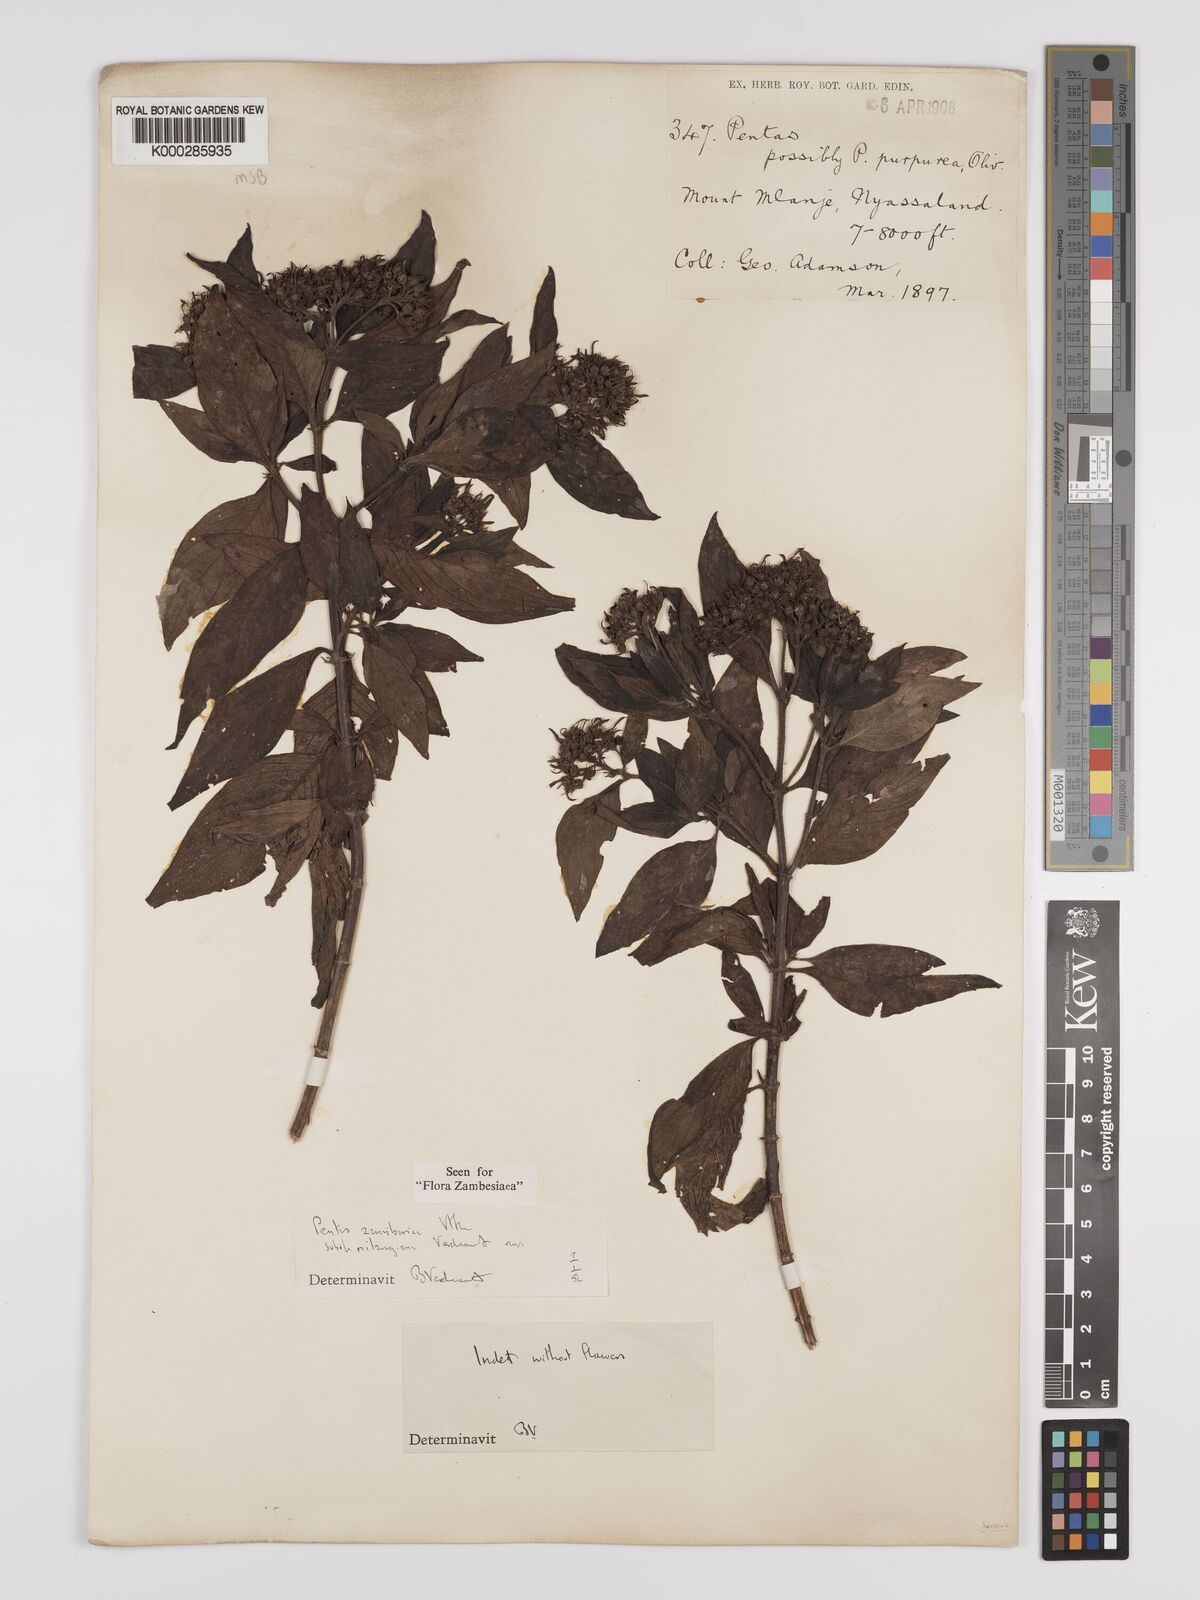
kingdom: Plantae
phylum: Tracheophyta
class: Magnoliopsida
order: Gentianales
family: Rubiaceae
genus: Pentas
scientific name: Pentas zanzibarica
